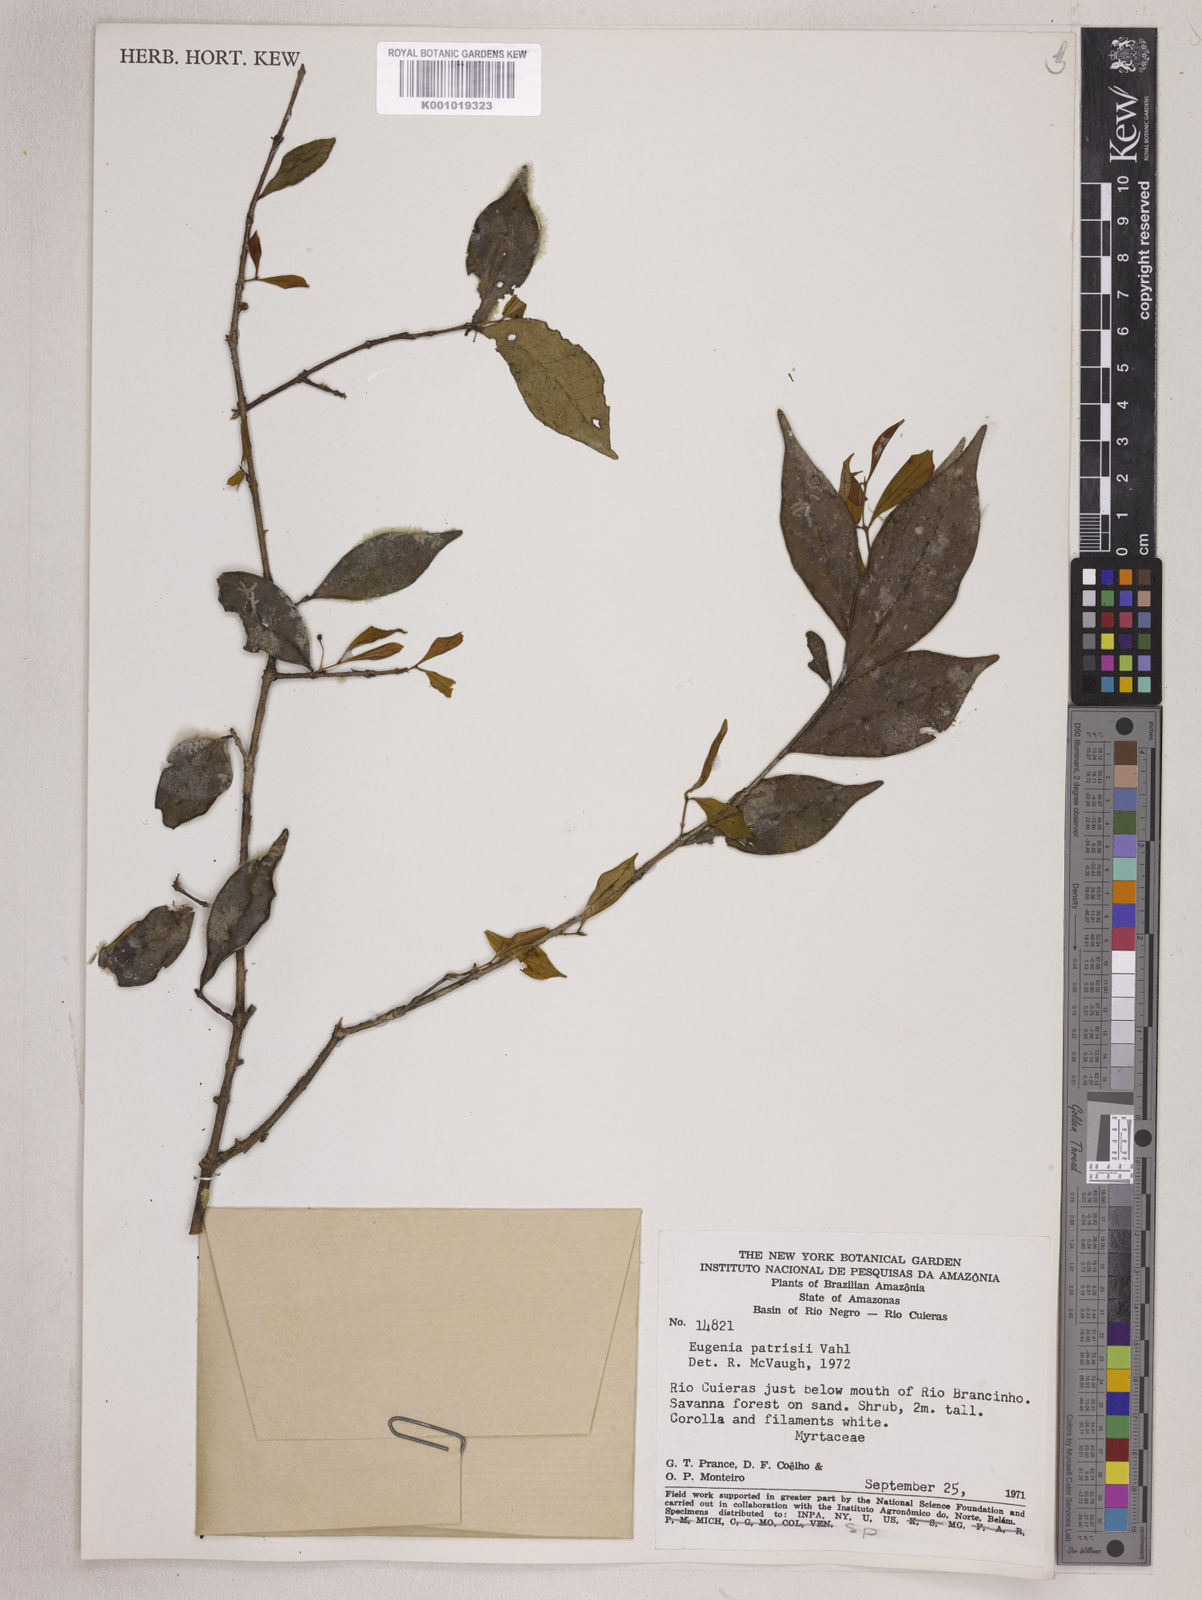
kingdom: Plantae
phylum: Tracheophyta
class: Magnoliopsida
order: Myrtales
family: Myrtaceae
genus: Eugenia
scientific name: Eugenia patrisii
